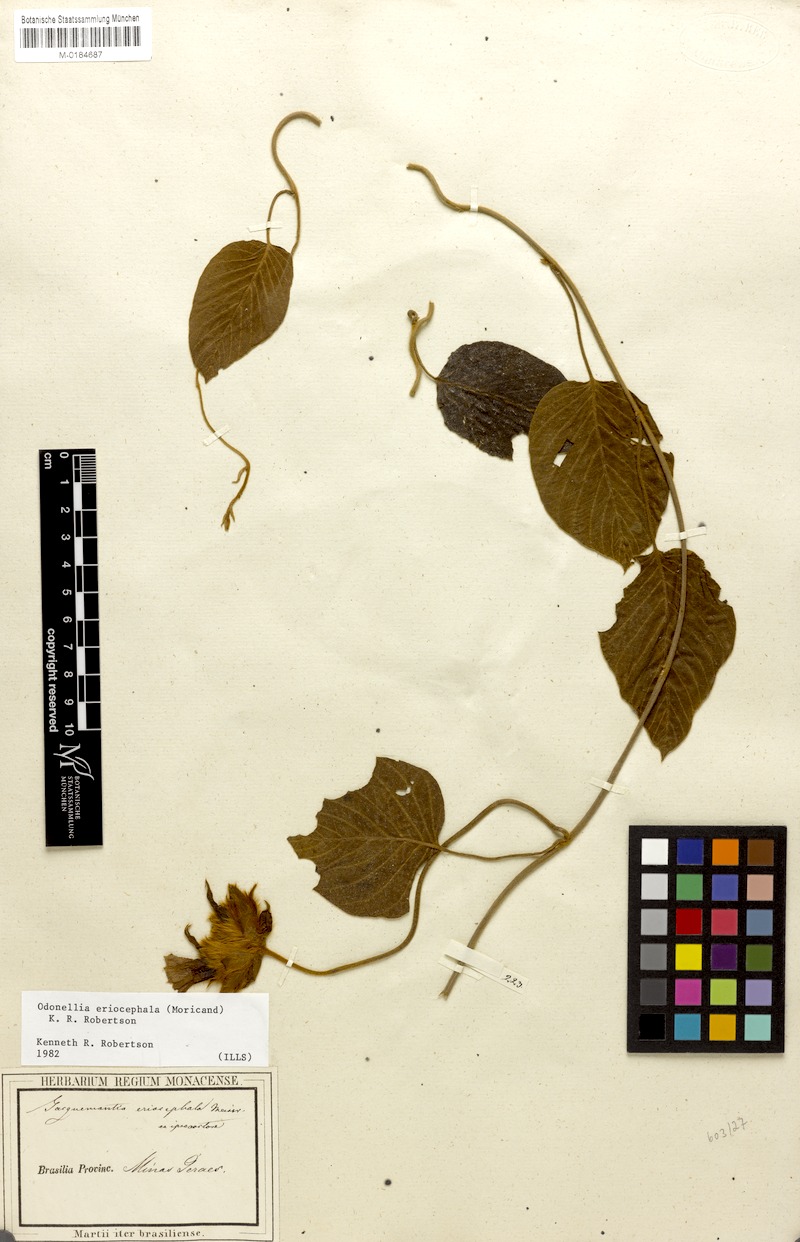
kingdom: Plantae
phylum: Tracheophyta
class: Magnoliopsida
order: Solanales
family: Convolvulaceae
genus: Odonellia
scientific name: Odonellia eriocephala
